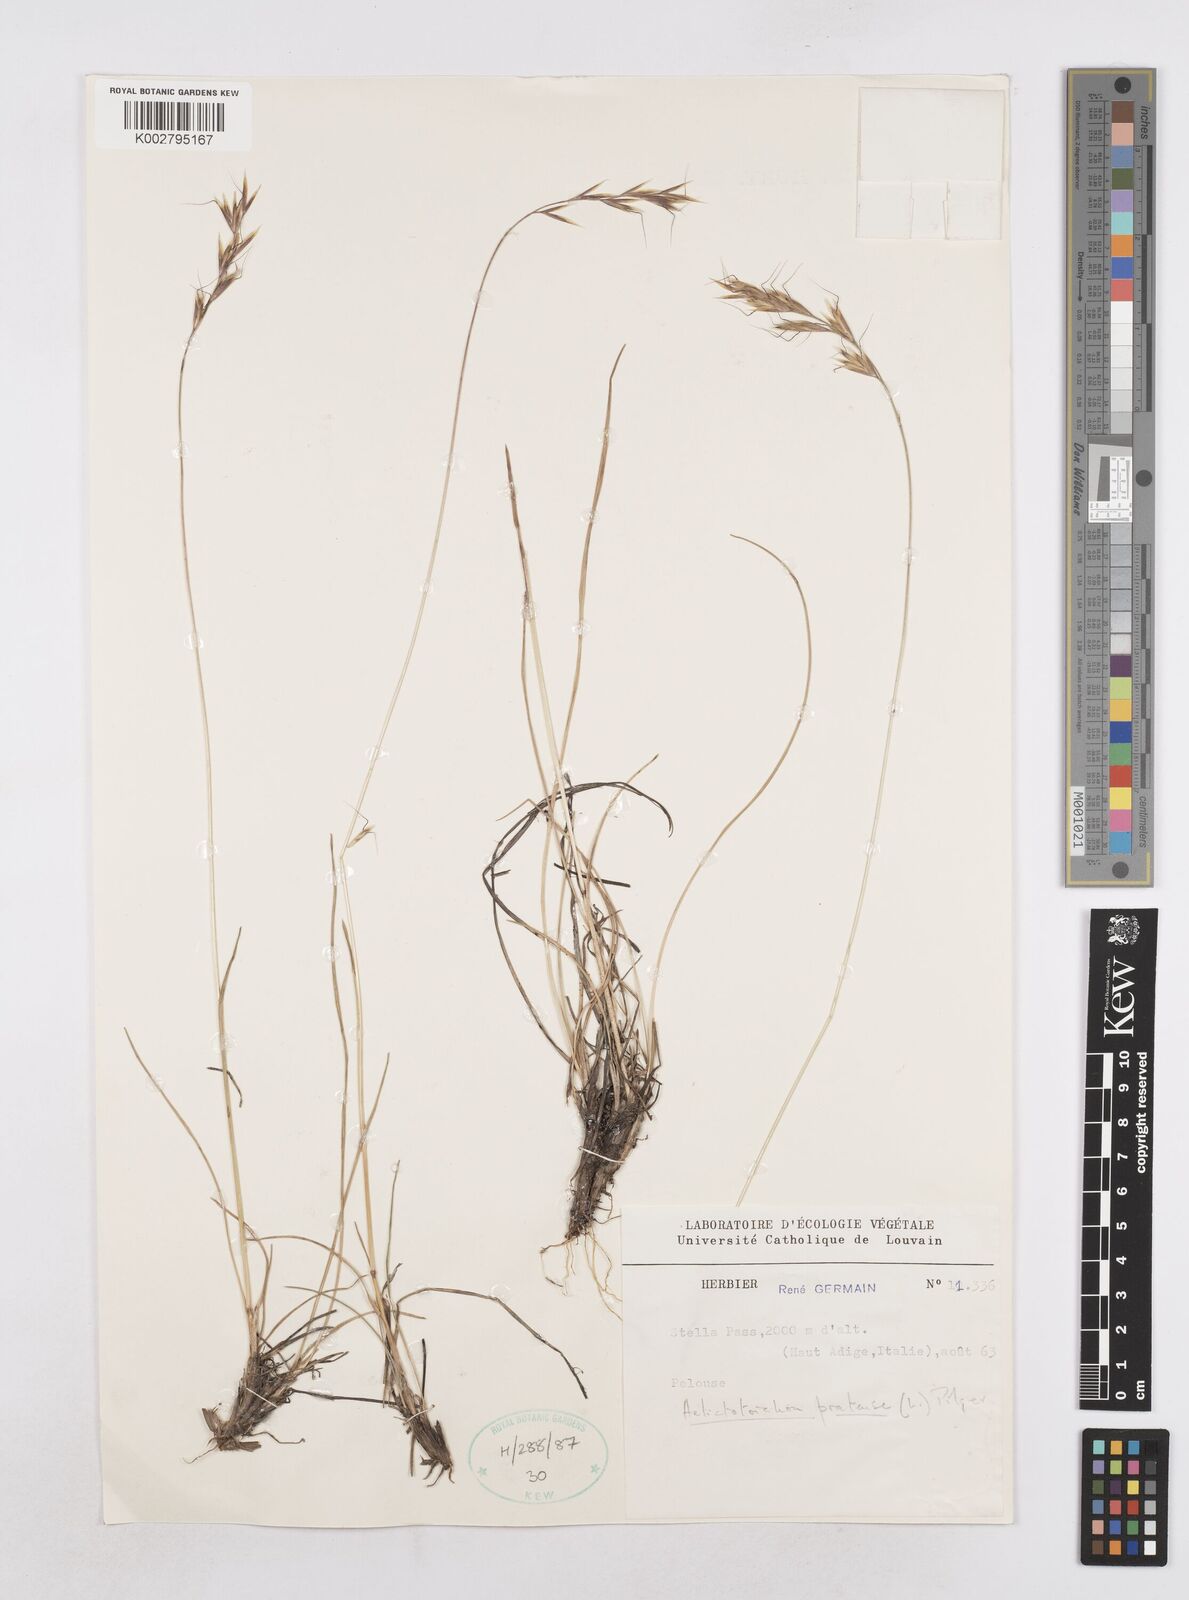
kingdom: Plantae
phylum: Tracheophyta
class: Liliopsida
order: Poales
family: Poaceae
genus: Helictochloa
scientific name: Helictochloa pratensis
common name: Meadow oat grass
